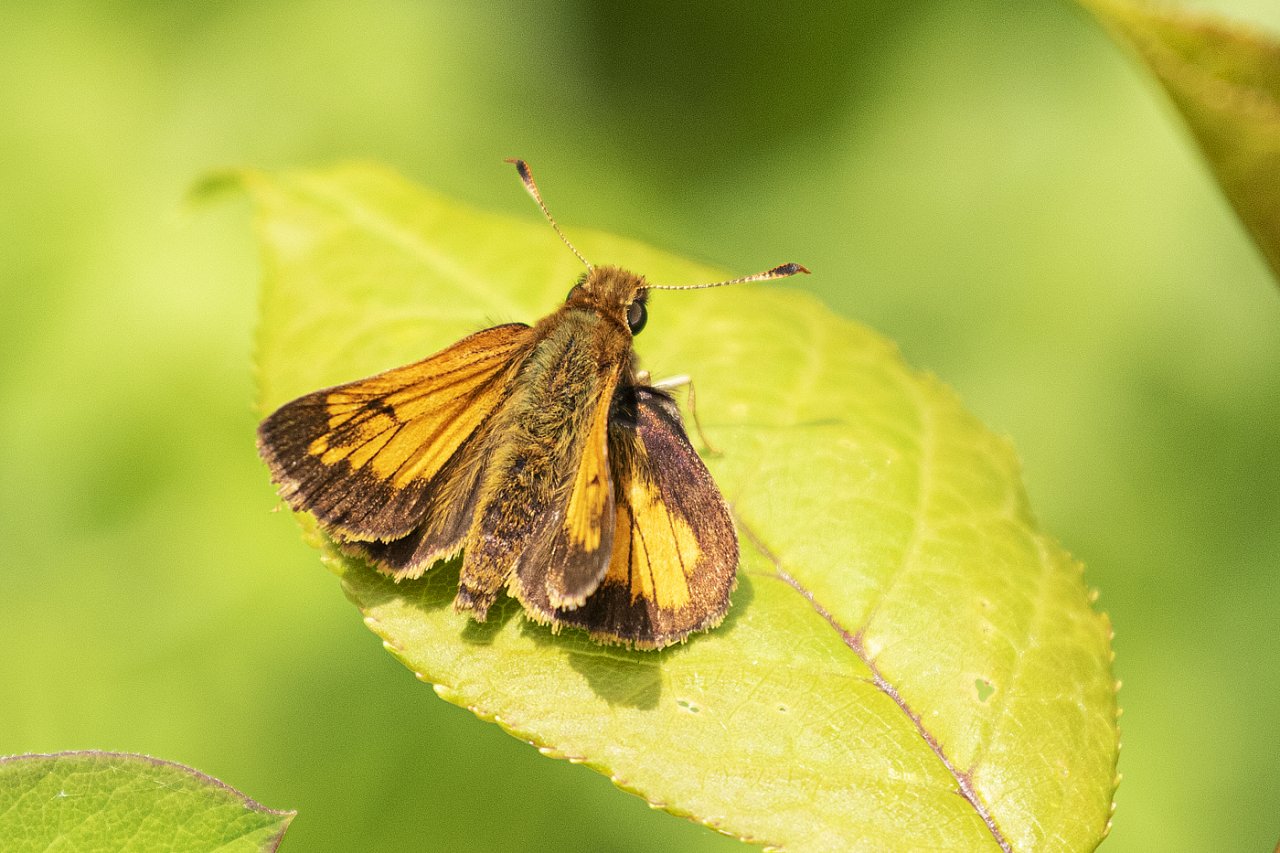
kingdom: Animalia
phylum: Arthropoda
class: Insecta
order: Lepidoptera
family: Hesperiidae
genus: Lon
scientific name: Lon hobomok
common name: Hobomok Skipper
